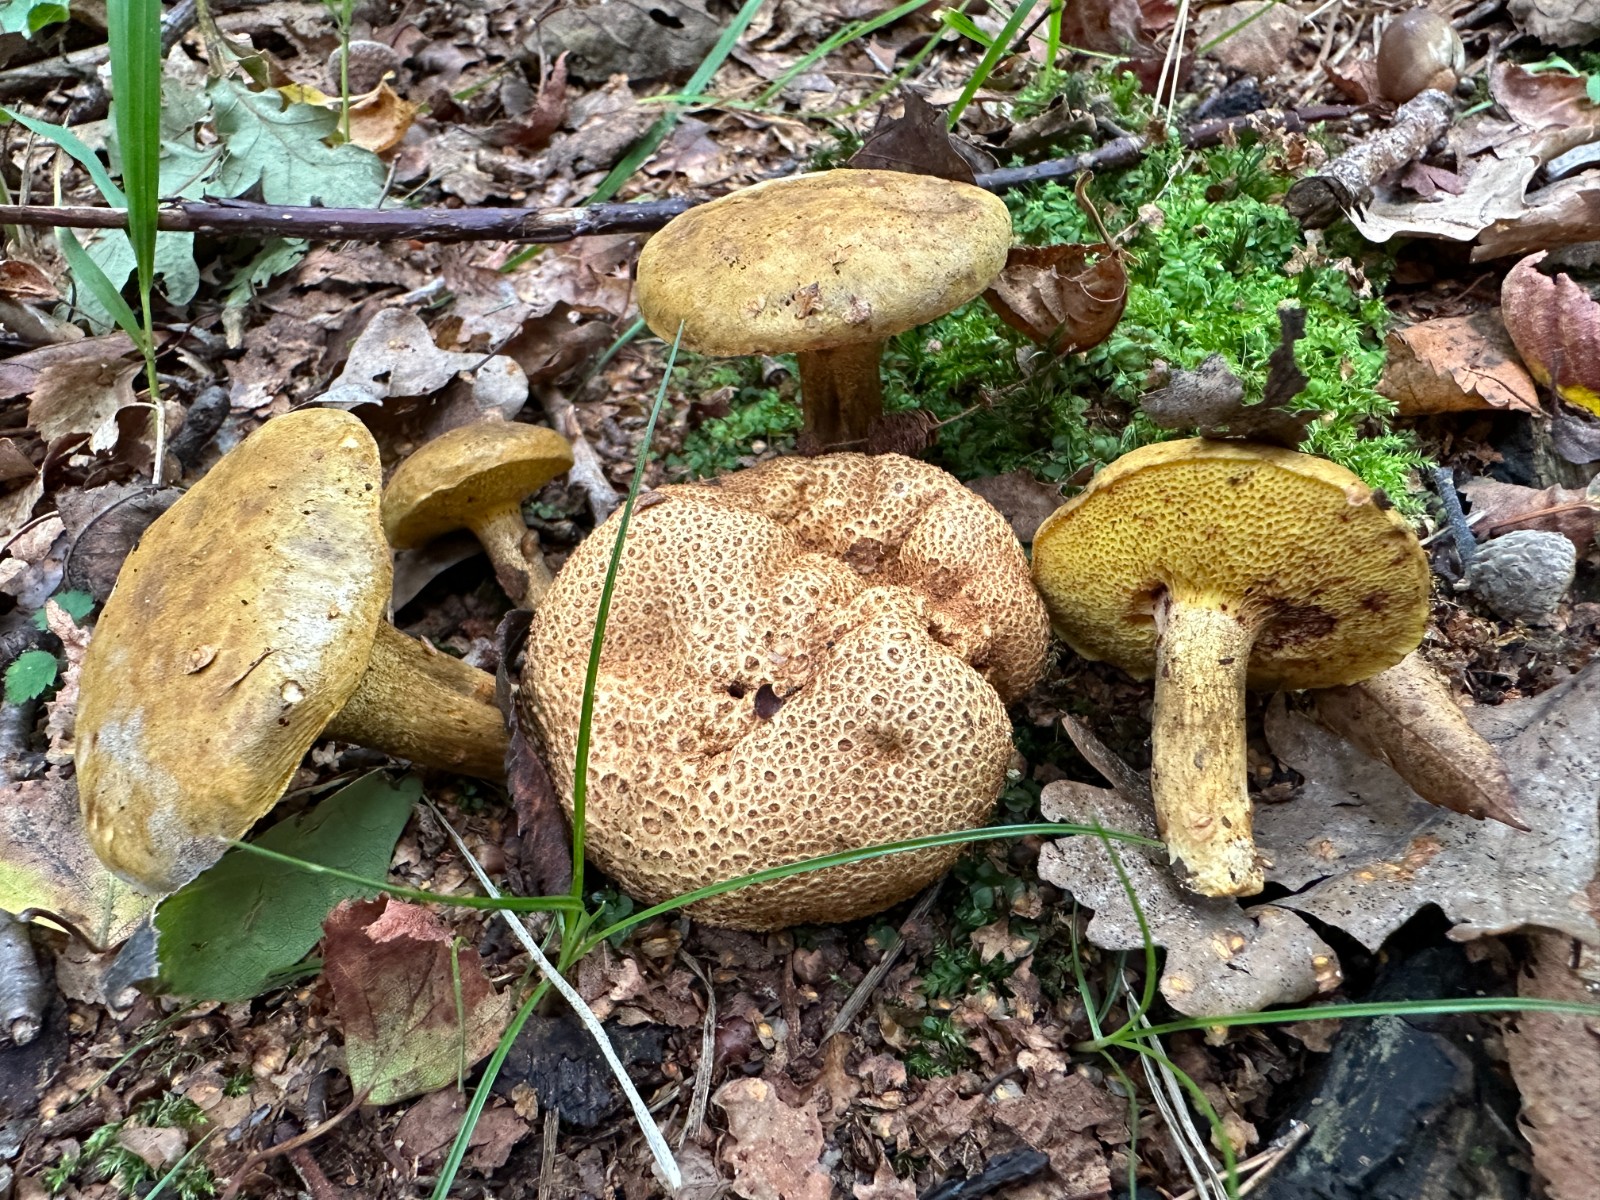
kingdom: Fungi
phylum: Basidiomycota
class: Agaricomycetes
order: Boletales
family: Boletaceae
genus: Pseudoboletus
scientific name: Pseudoboletus parasiticus
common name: snyltende rørhat
